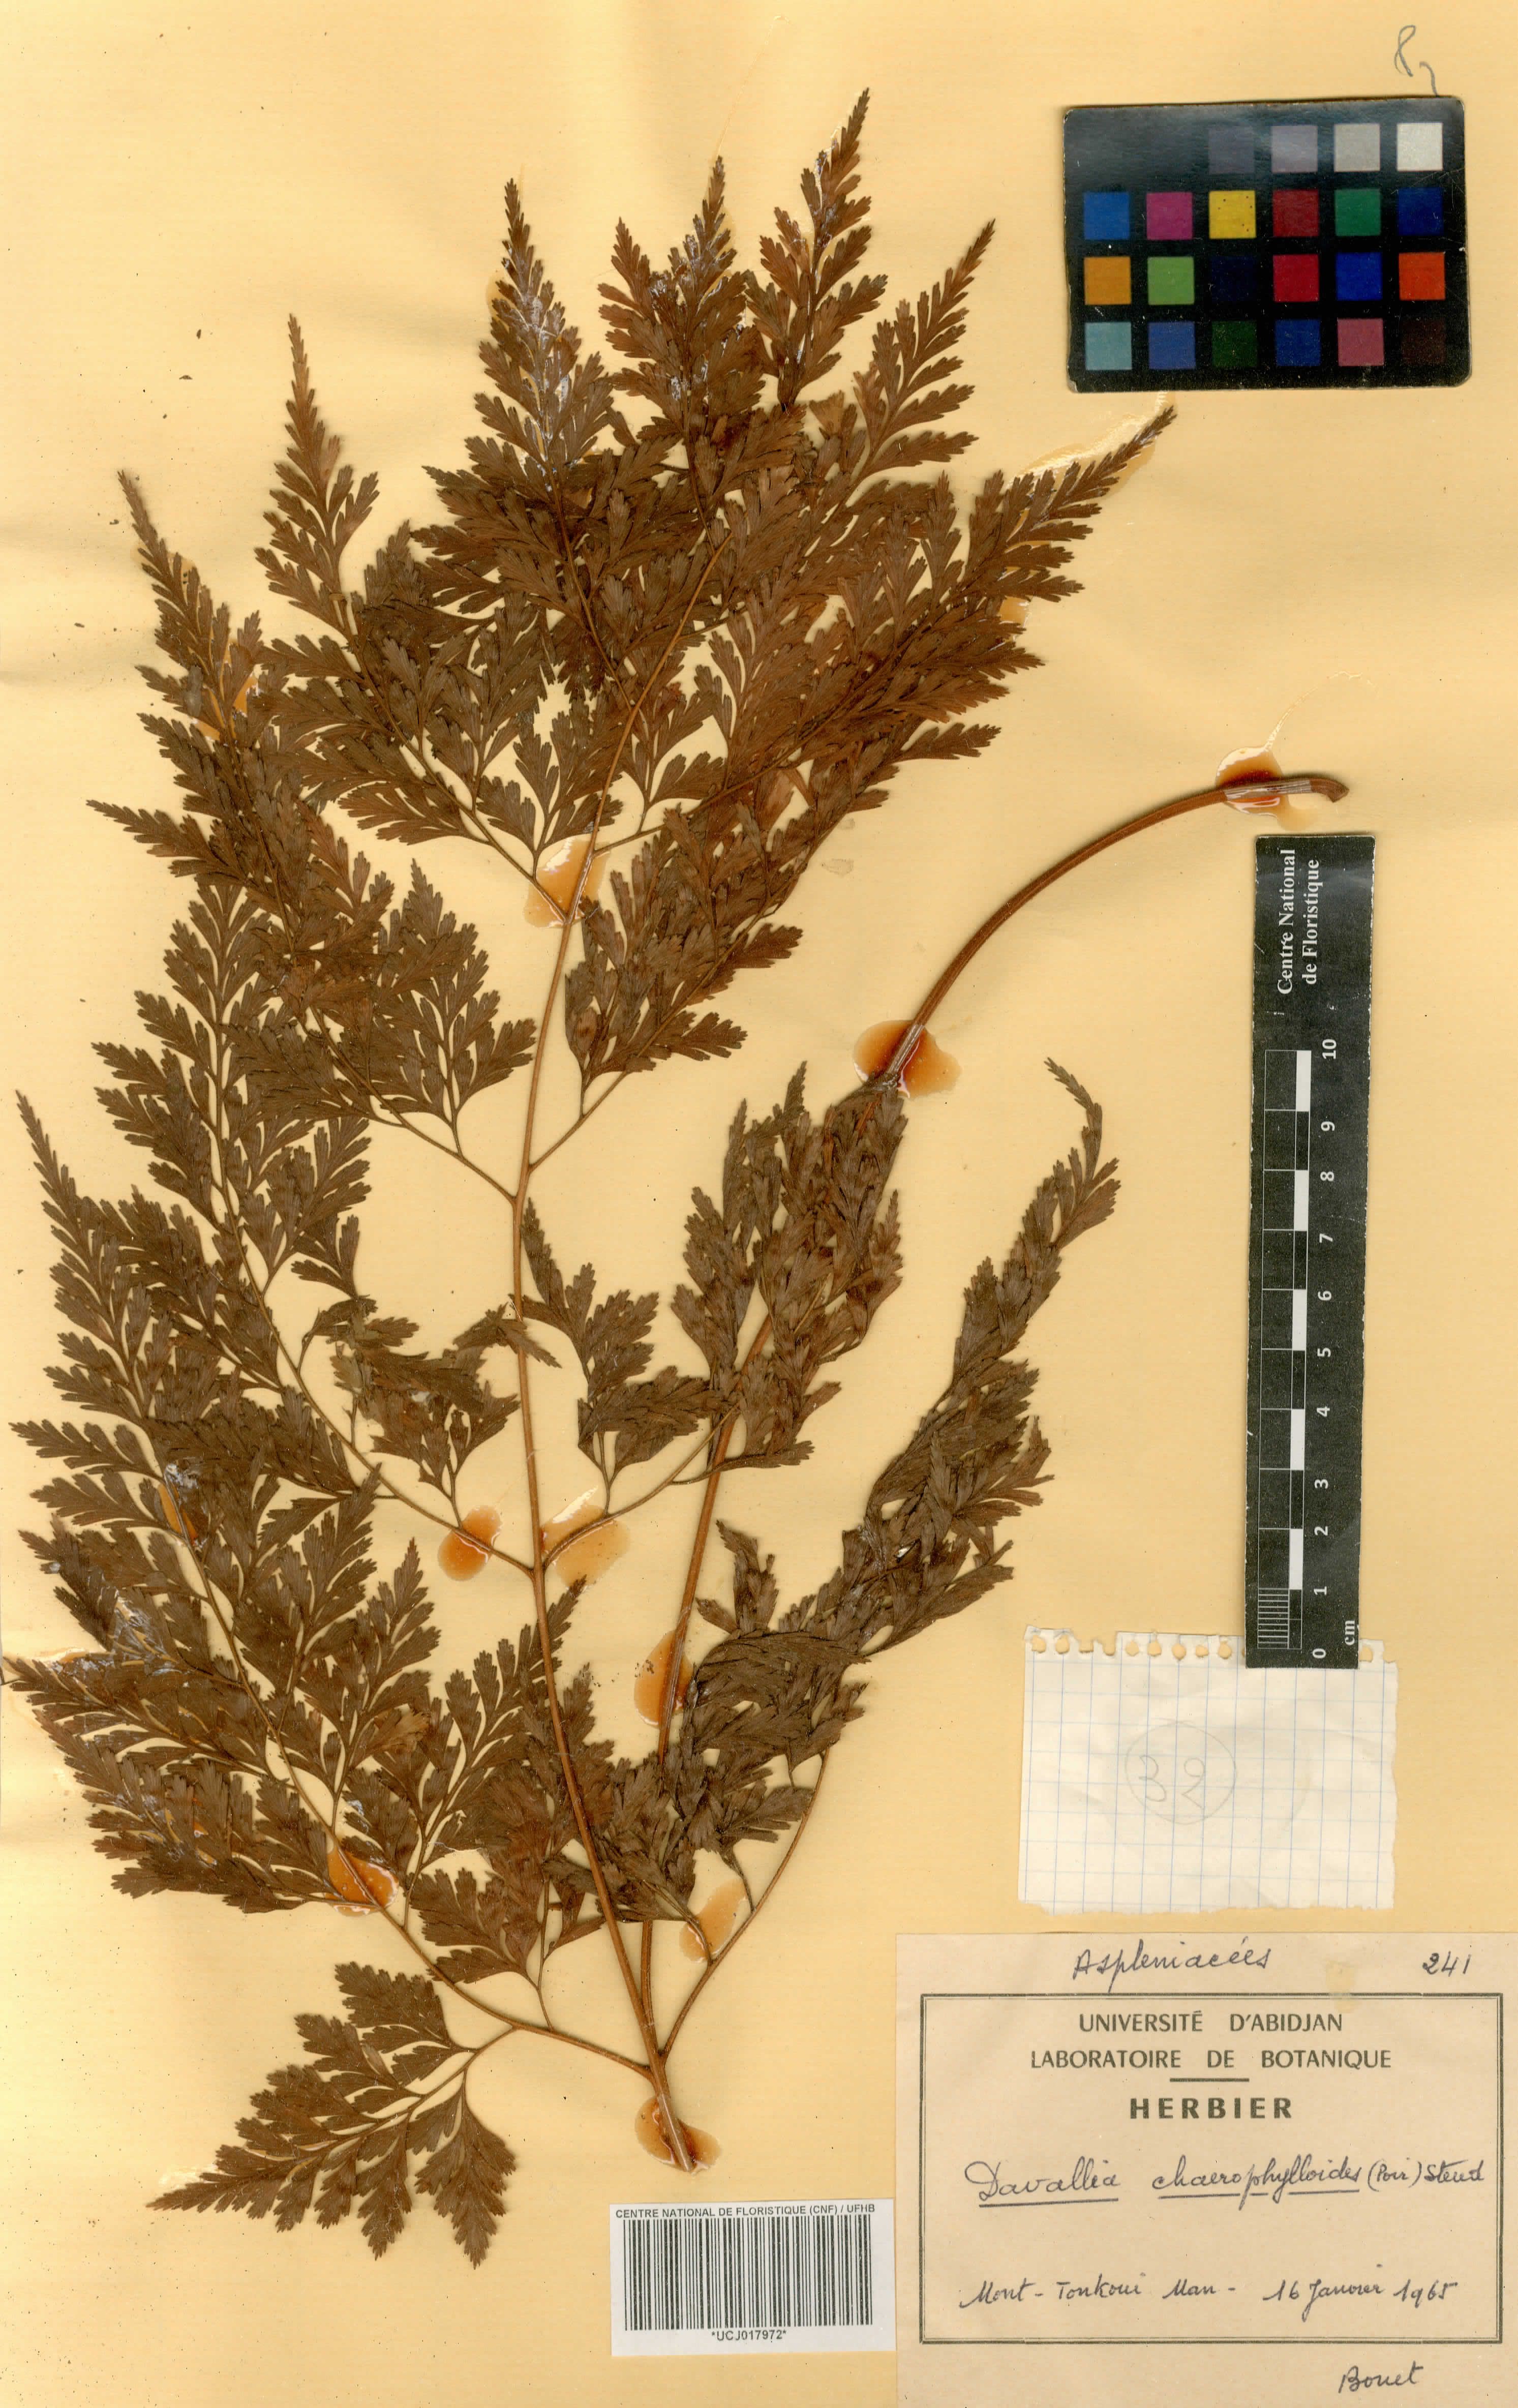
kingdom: Plantae
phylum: Tracheophyta
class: Polypodiopsida
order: Polypodiales
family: Davalliaceae
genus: Davallia
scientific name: Davallia chaerophylloides
